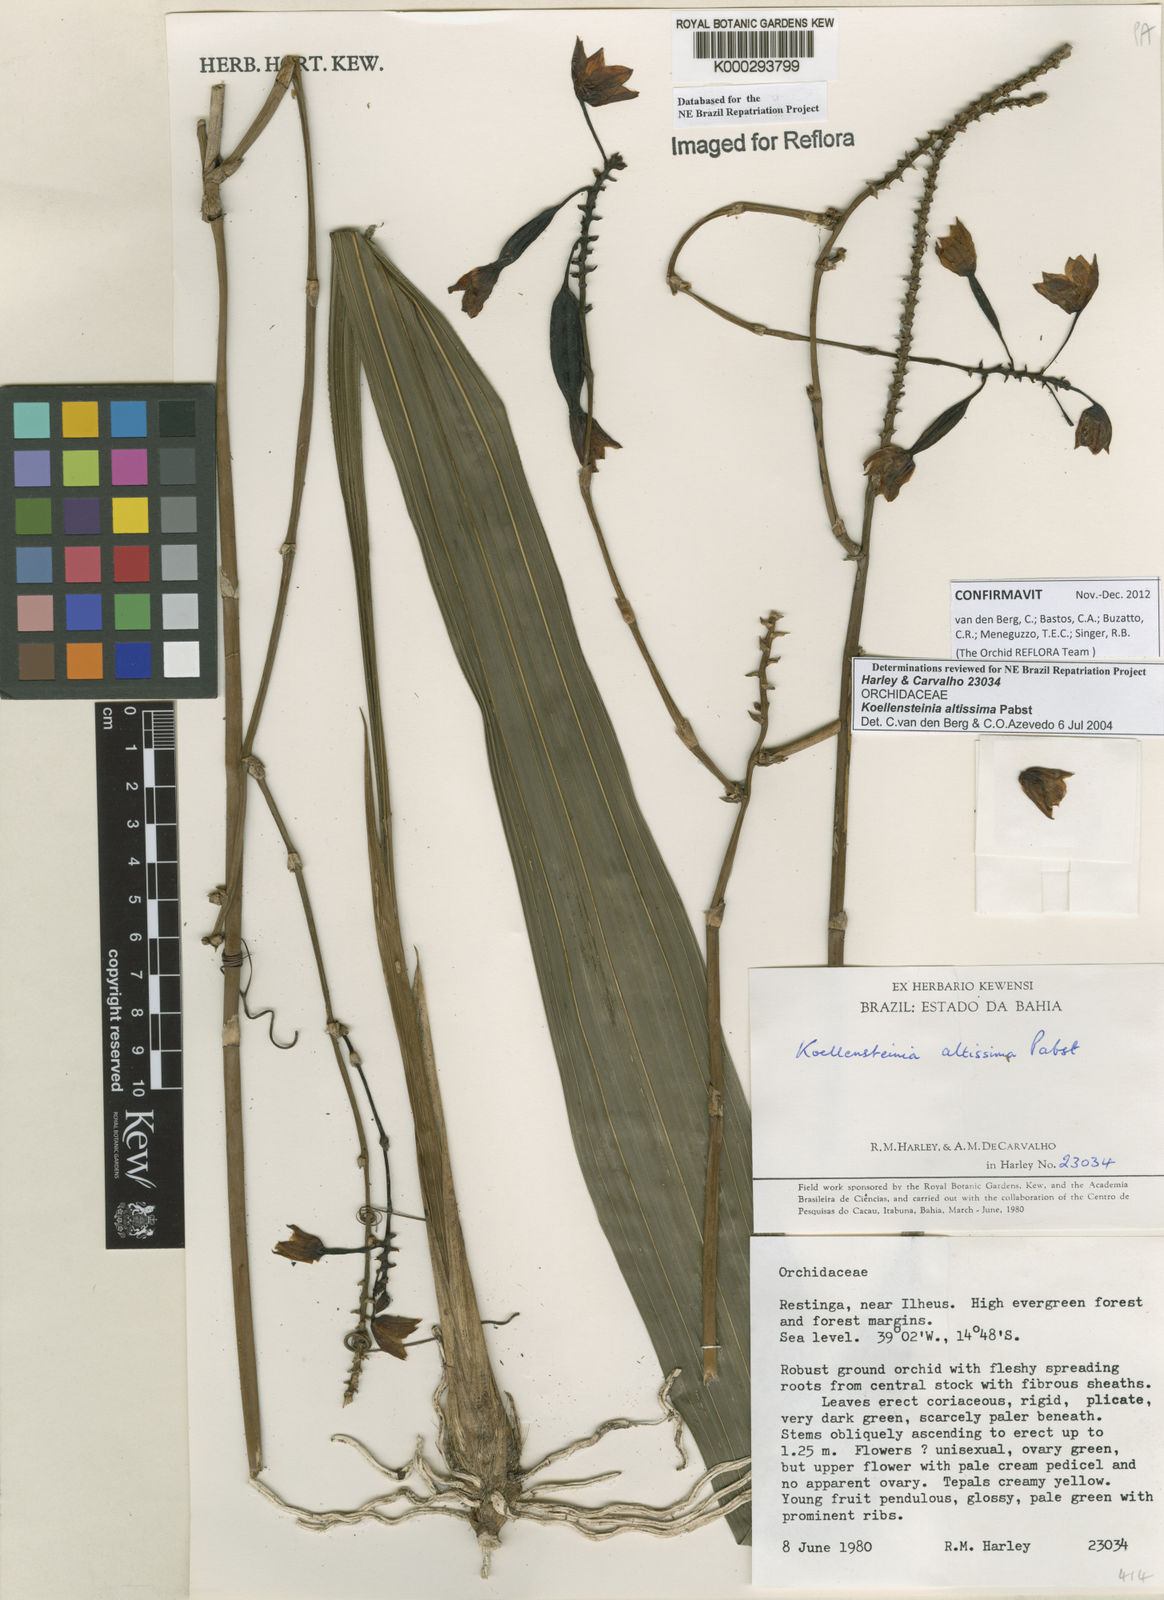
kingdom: Plantae
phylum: Tracheophyta
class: Liliopsida
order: Asparagales
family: Orchidaceae
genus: Koellensteinia
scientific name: Koellensteinia florida
